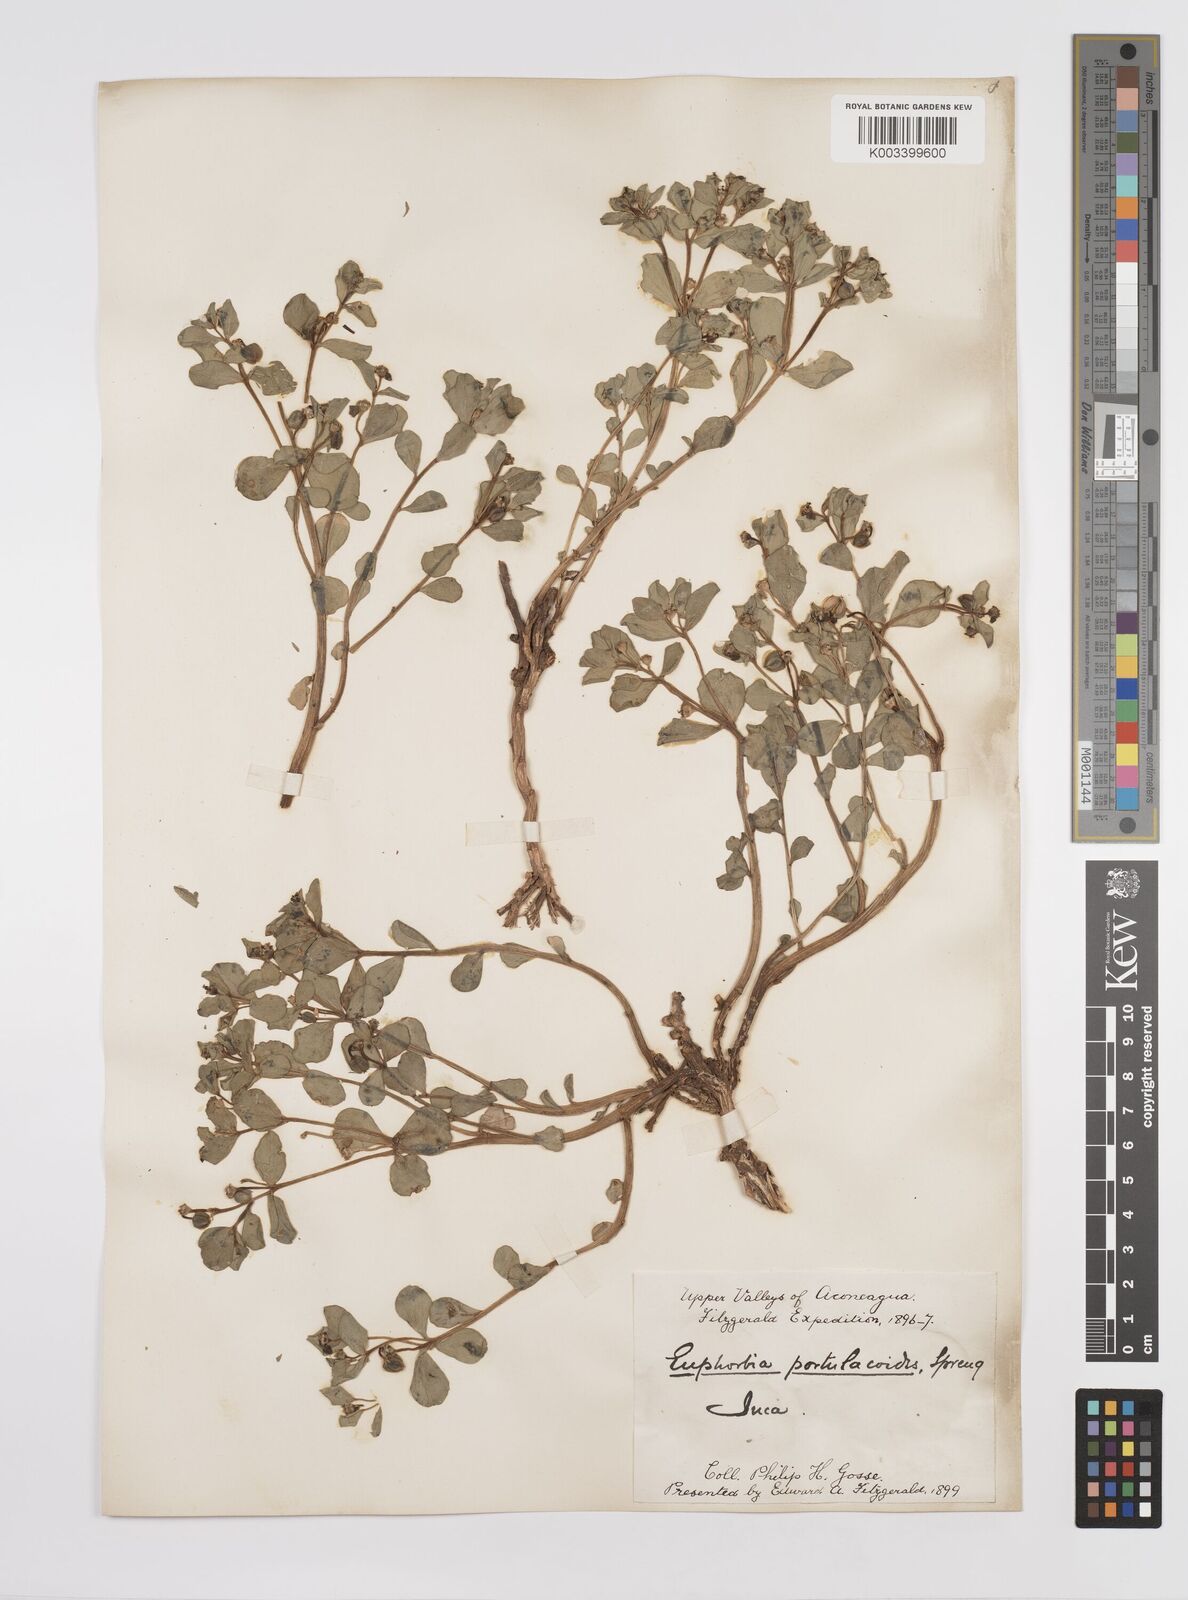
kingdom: Plantae
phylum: Tracheophyta
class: Magnoliopsida
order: Malpighiales
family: Euphorbiaceae
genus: Euphorbia
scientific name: Euphorbia portulacoides
